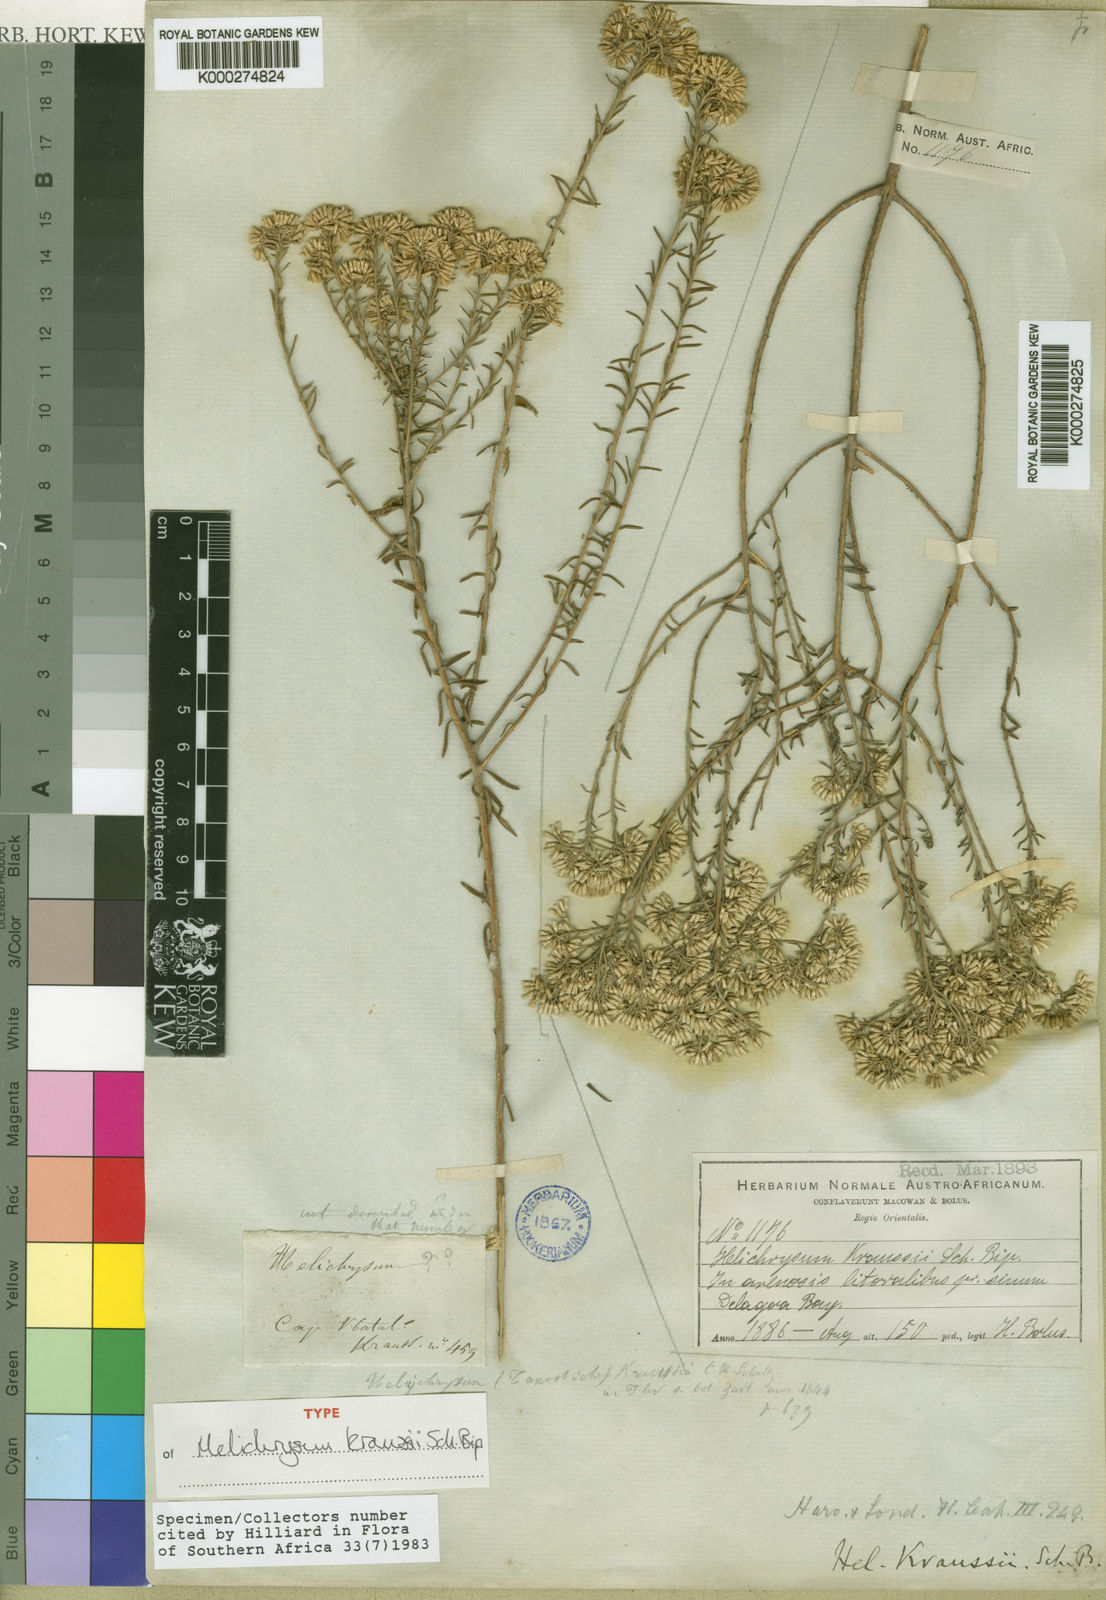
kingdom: Plantae
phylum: Tracheophyta
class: Magnoliopsida
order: Asterales
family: Asteraceae
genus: Helichrysum
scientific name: Helichrysum kraussii
